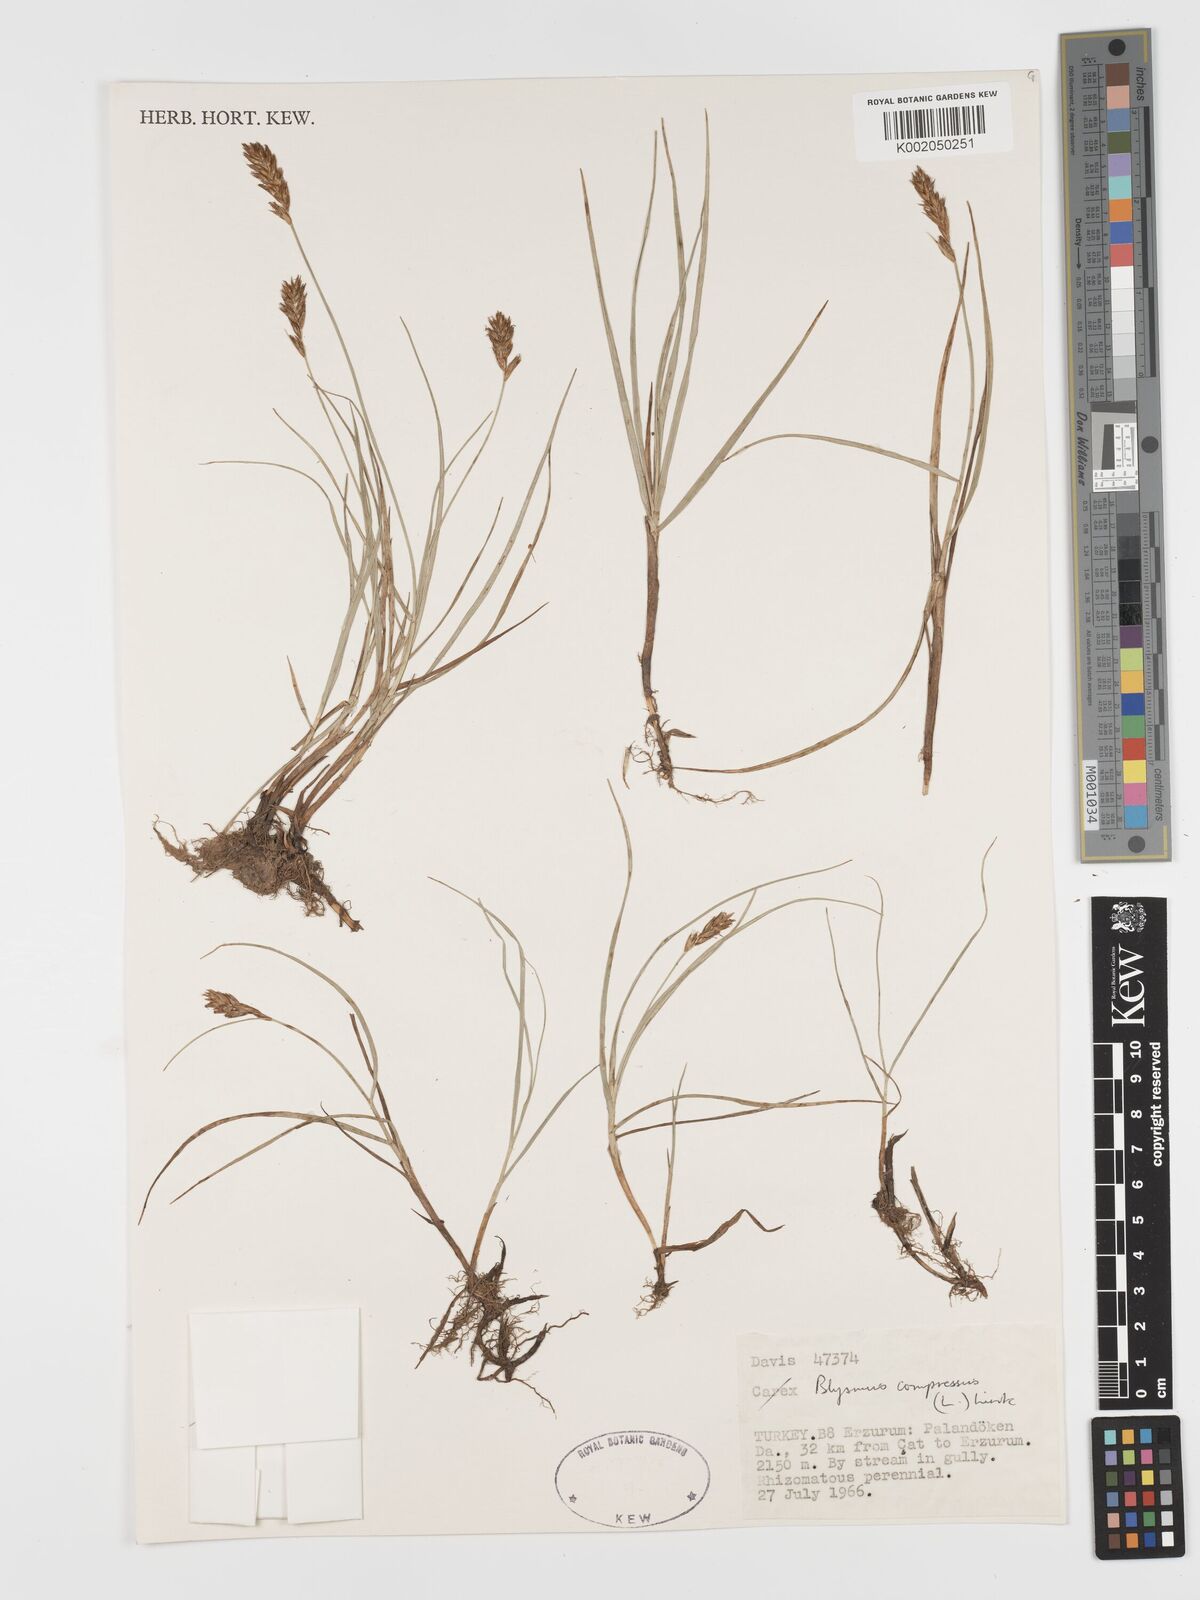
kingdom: Plantae
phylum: Tracheophyta
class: Liliopsida
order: Poales
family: Cyperaceae
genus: Blysmus
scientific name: Blysmus compressus
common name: Flat-sedge
